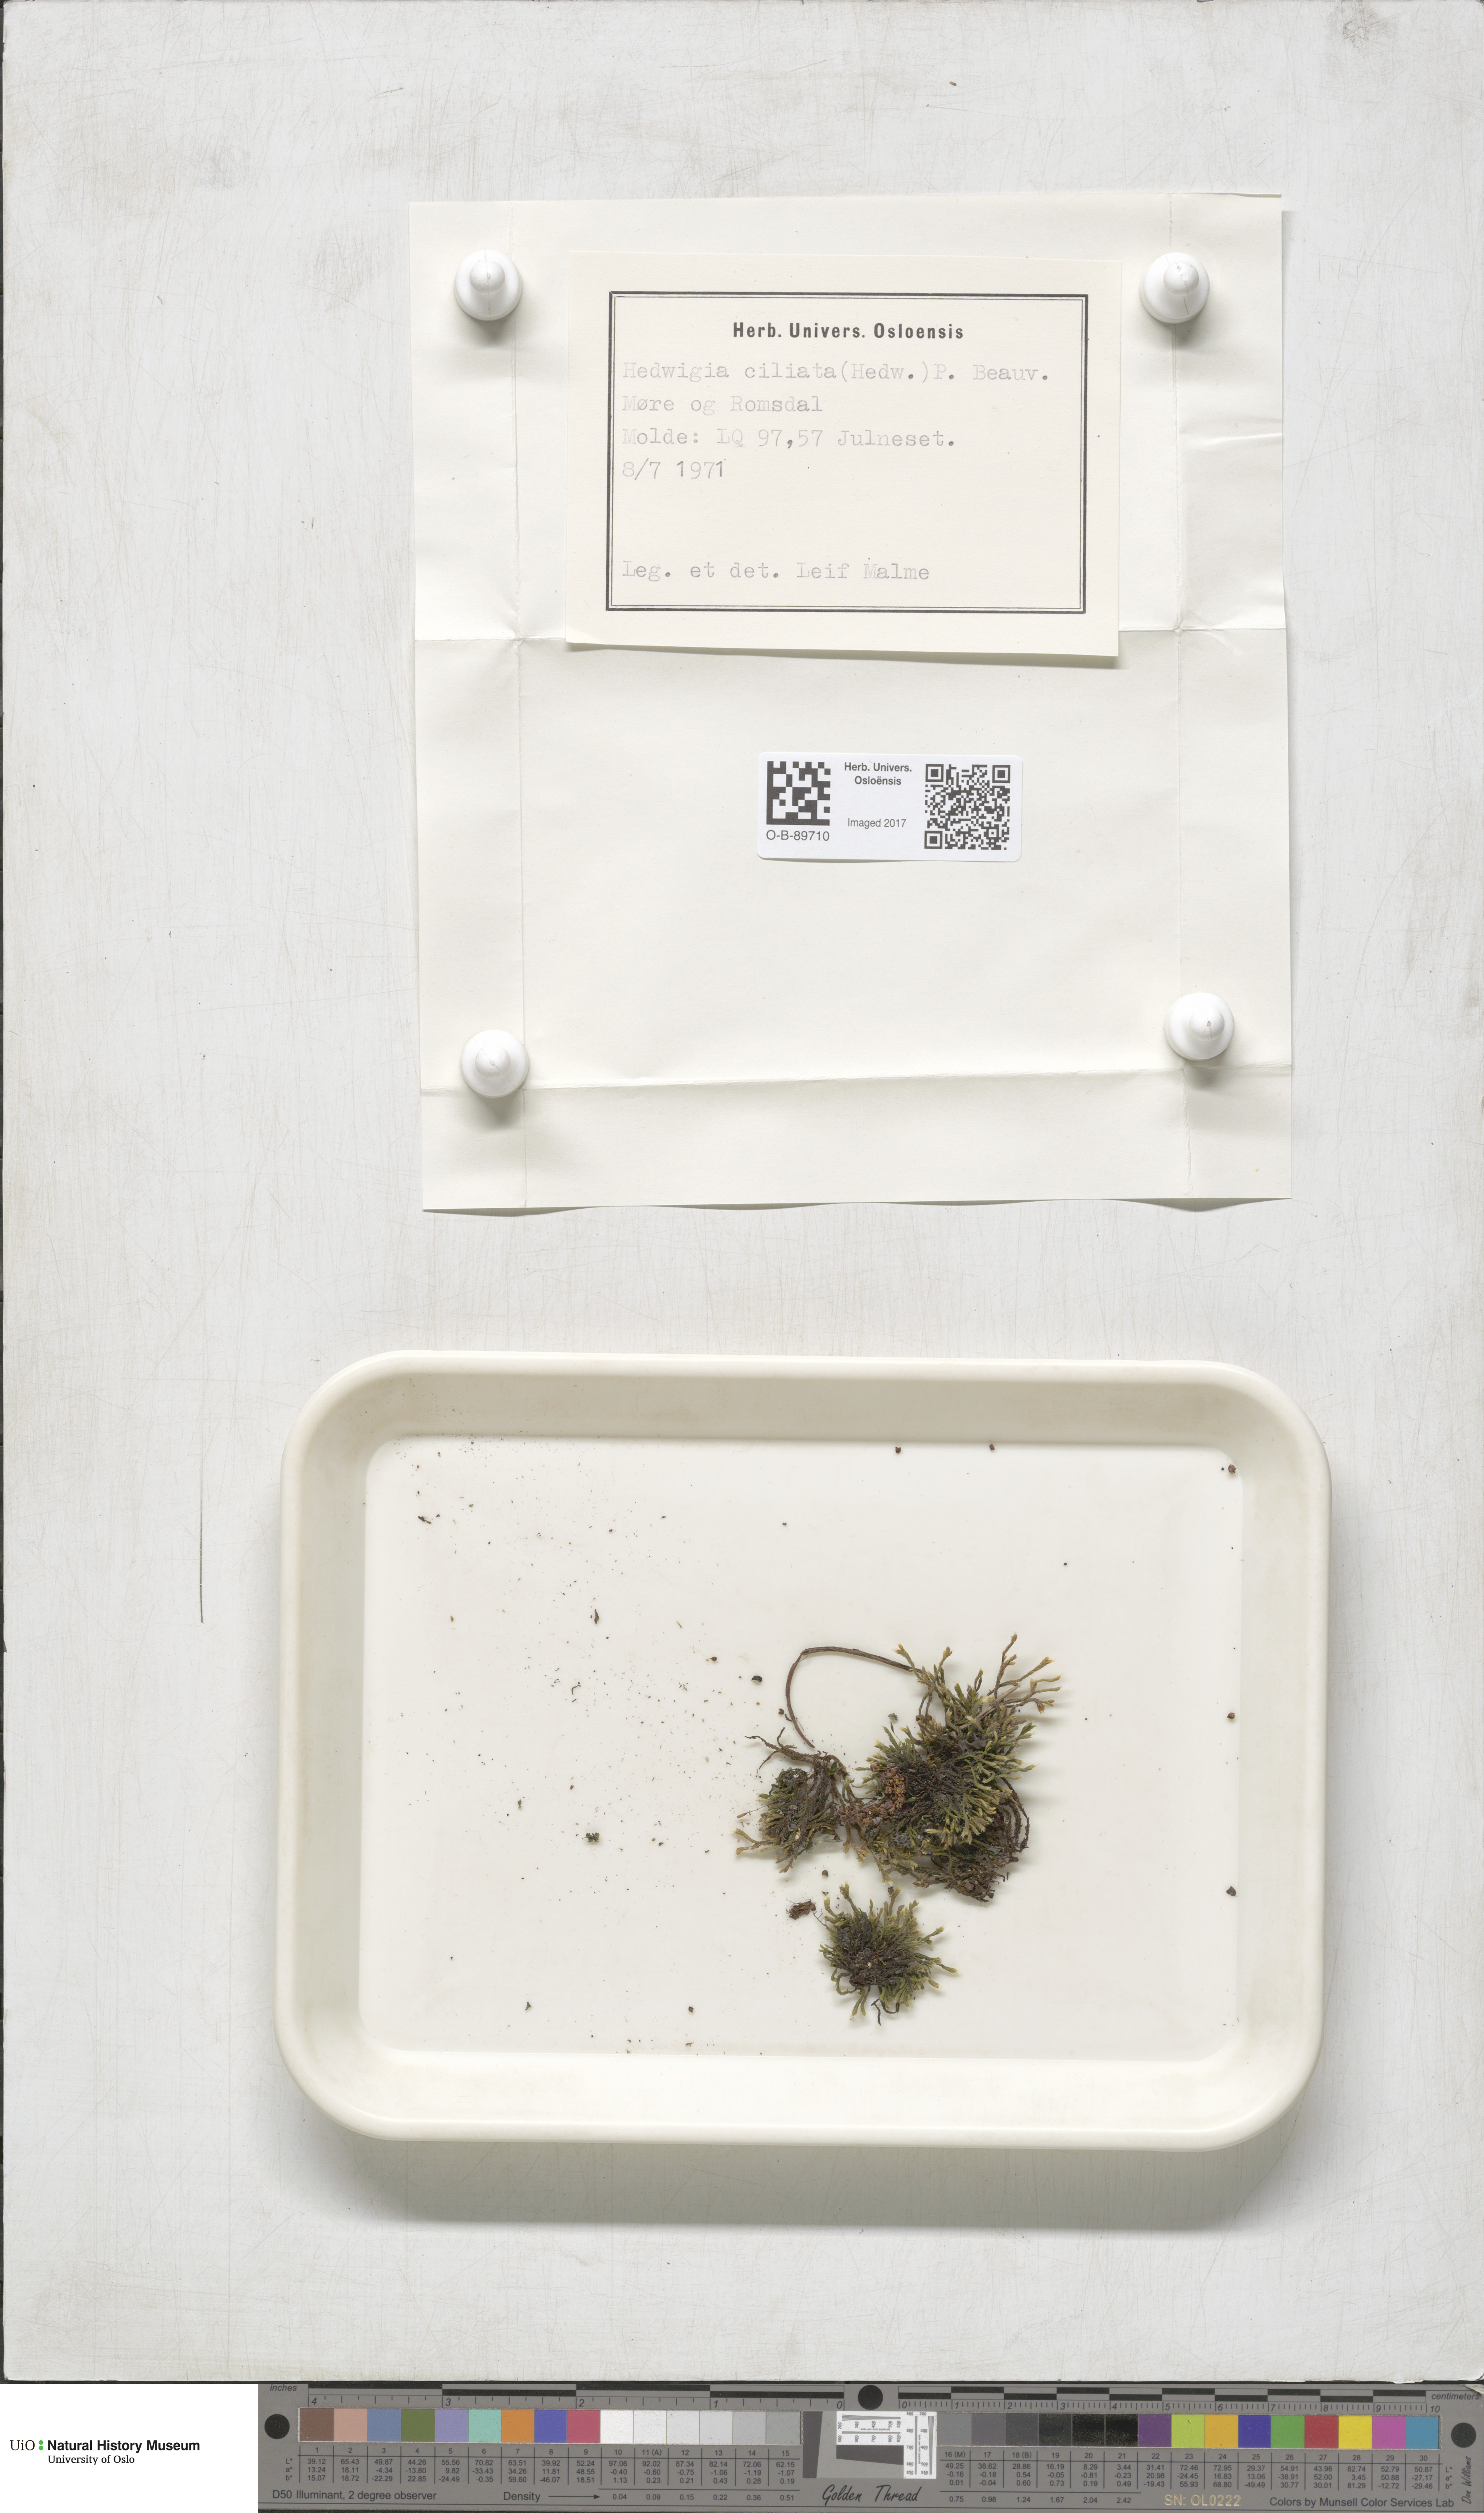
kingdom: Plantae
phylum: Bryophyta
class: Bryopsida
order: Hedwigiales
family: Hedwigiaceae
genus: Hedwigia
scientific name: Hedwigia ciliata
